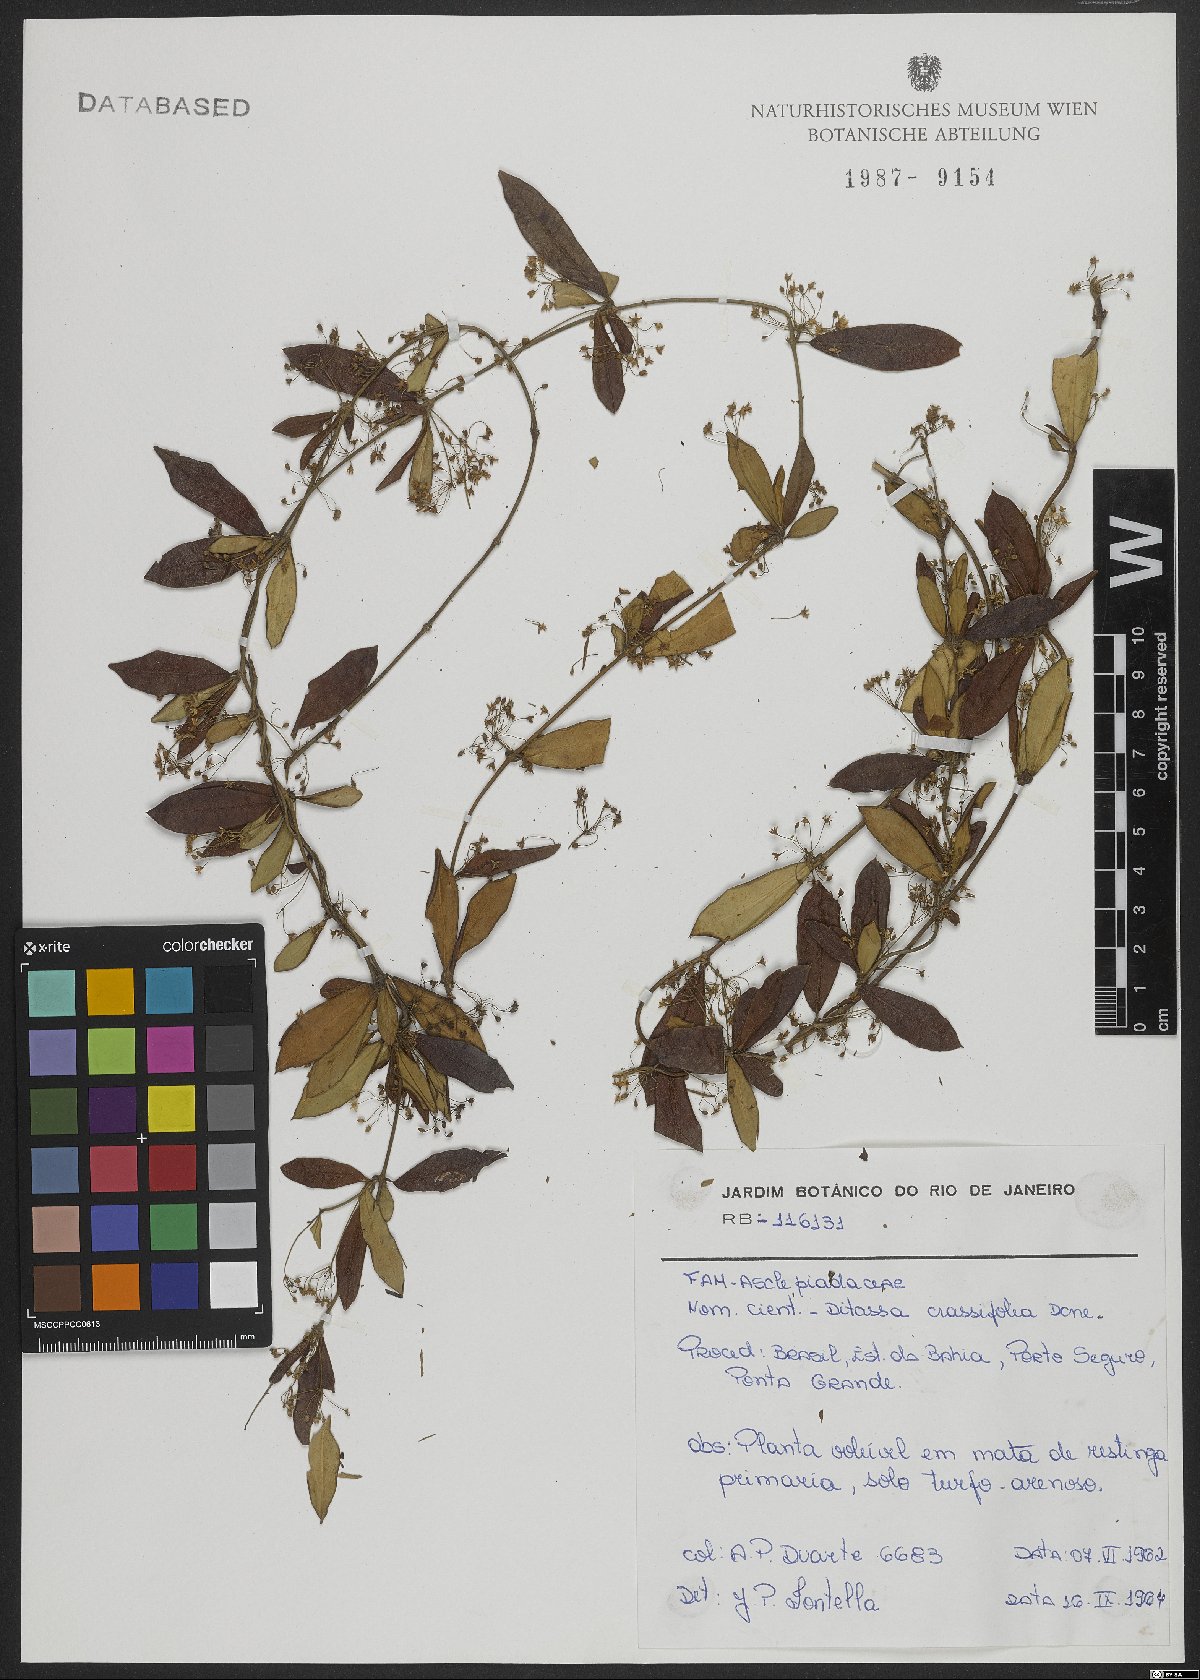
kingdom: Plantae
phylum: Tracheophyta
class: Magnoliopsida
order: Gentianales
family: Apocynaceae
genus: Ditassa
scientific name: Ditassa crassifolia
